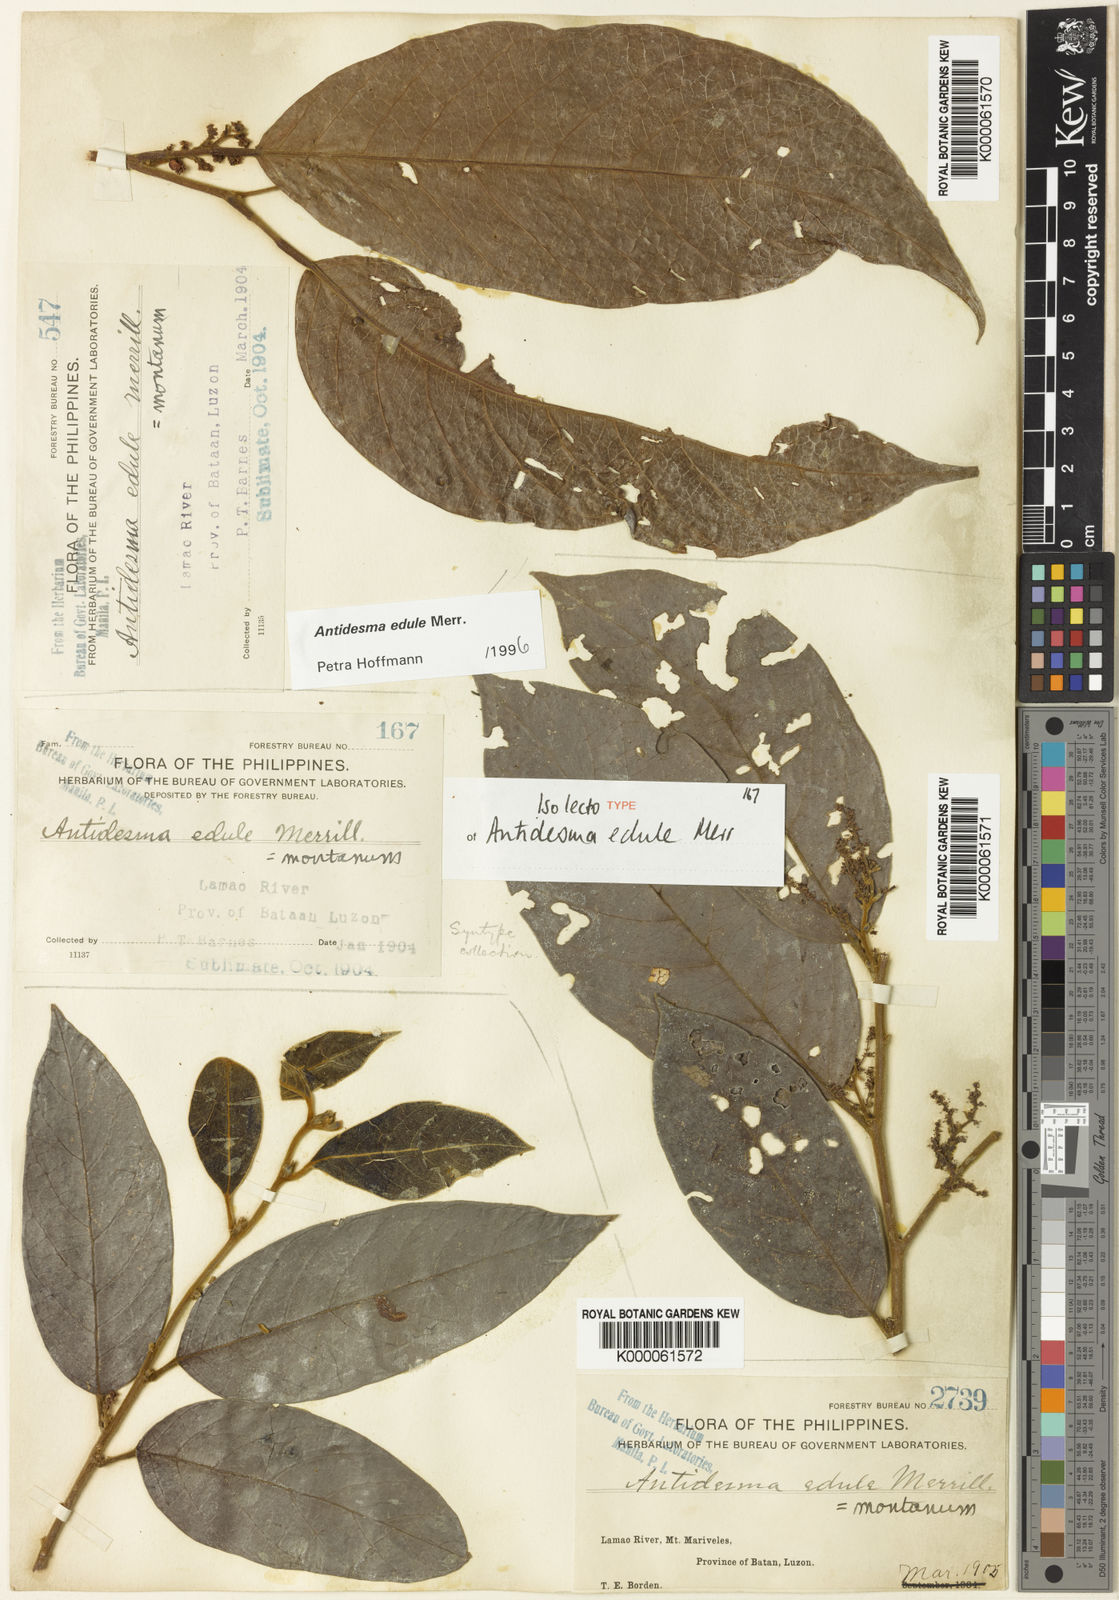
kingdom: Plantae
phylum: Tracheophyta
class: Magnoliopsida
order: Malpighiales
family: Phyllanthaceae
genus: Antidesma
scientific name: Antidesma edule
